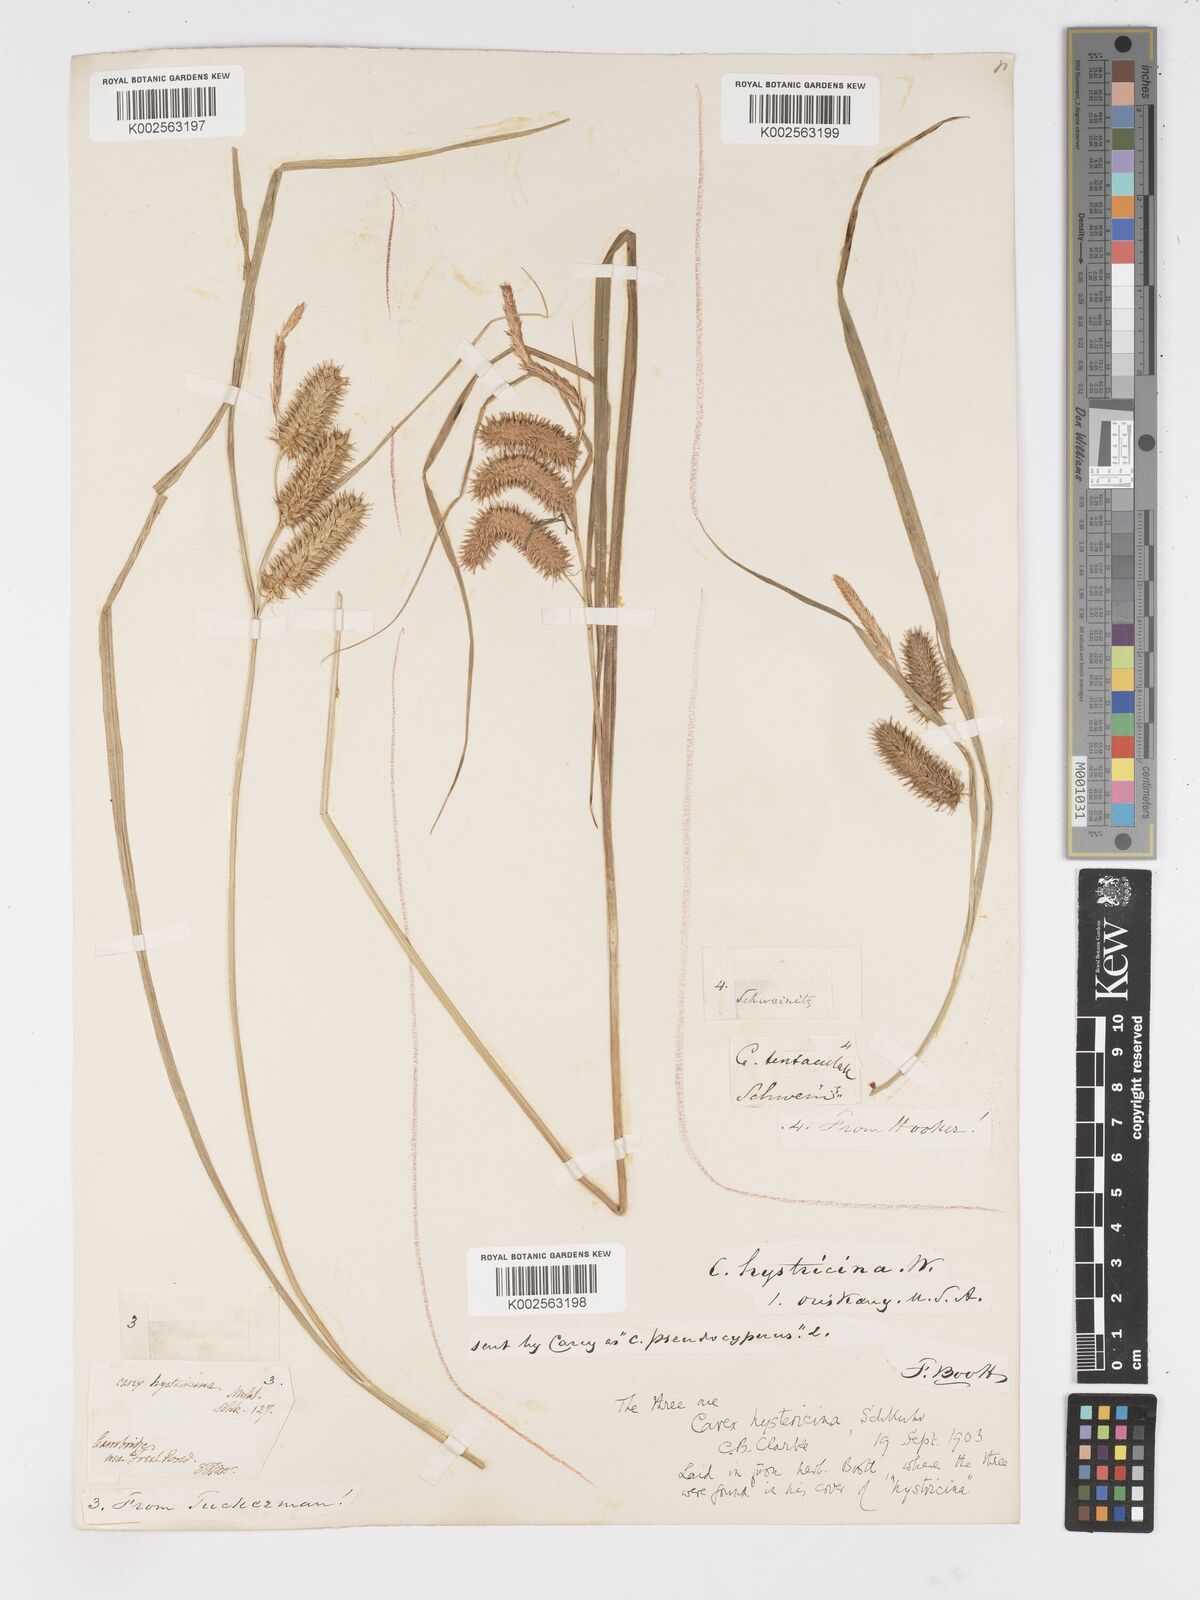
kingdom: Plantae
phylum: Tracheophyta
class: Liliopsida
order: Poales
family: Cyperaceae
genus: Carex
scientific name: Carex hystericina
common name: Bottlebrush sedge
